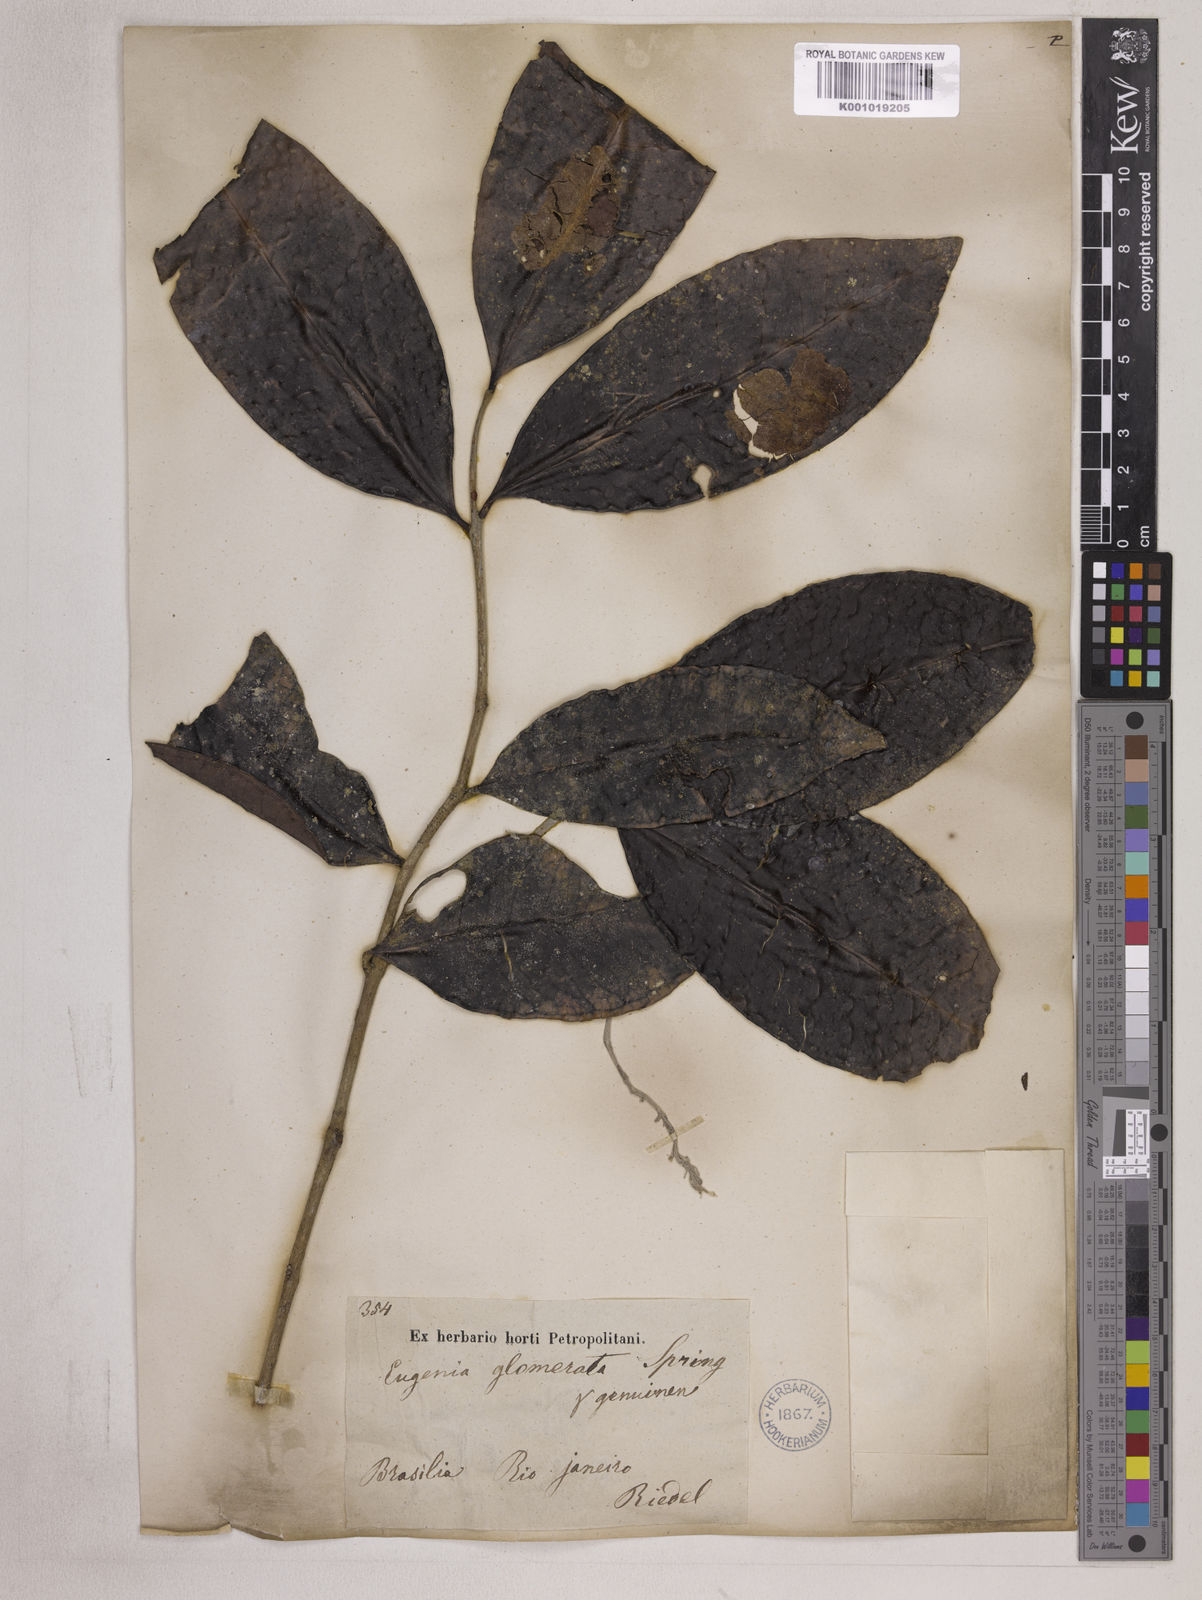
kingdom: Plantae
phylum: Tracheophyta
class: Magnoliopsida
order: Myrtales
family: Myrtaceae
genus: Eugenia
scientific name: Eugenia neoglomerata
